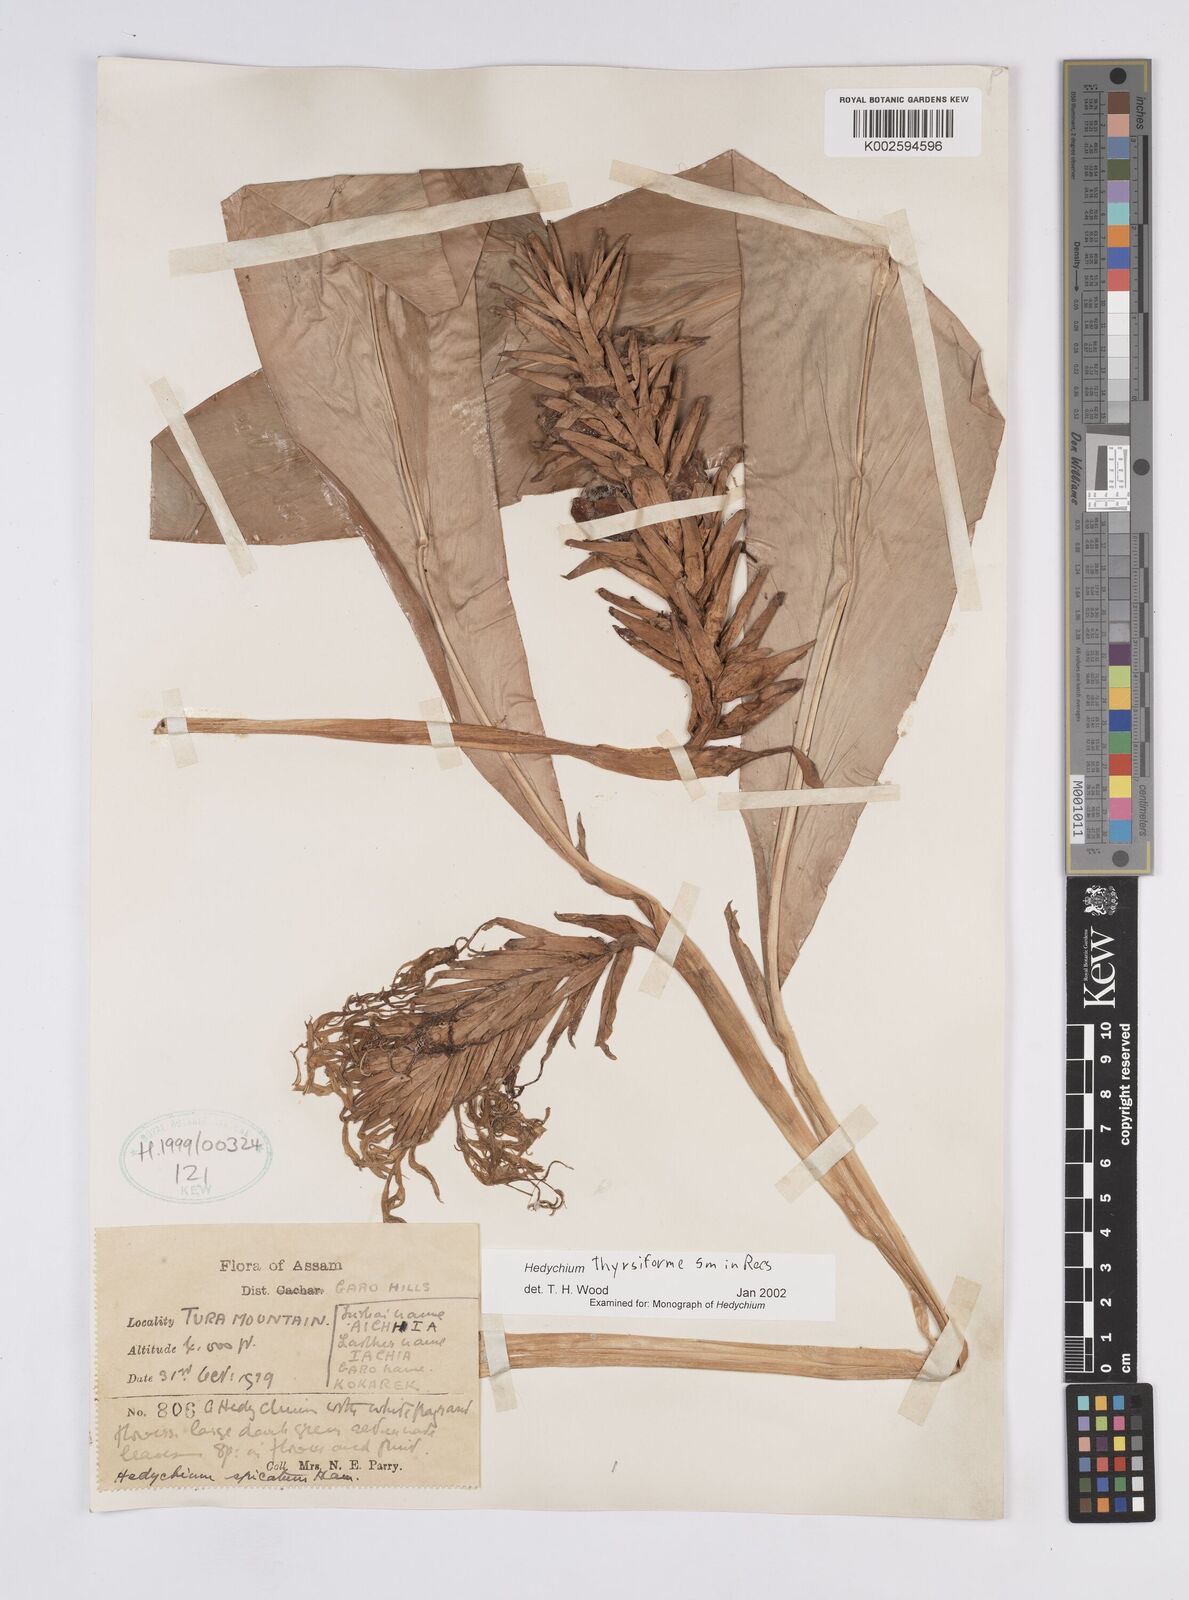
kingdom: Plantae
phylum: Tracheophyta
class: Liliopsida
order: Zingiberales
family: Zingiberaceae
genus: Hedychium
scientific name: Hedychium thyrsiforme
